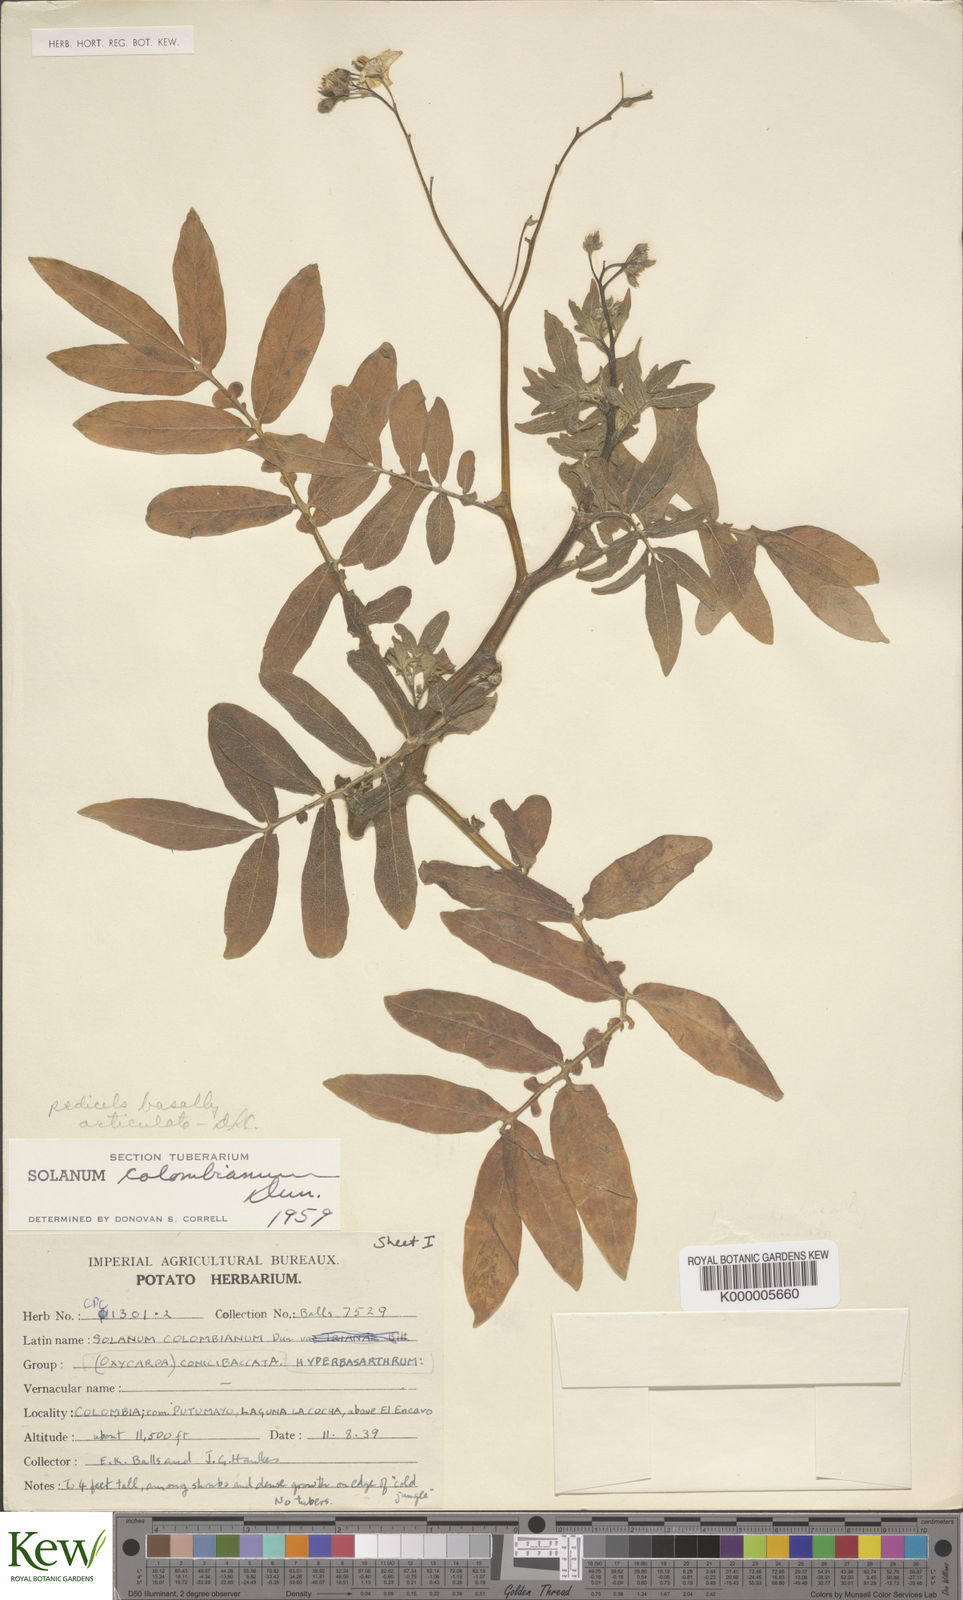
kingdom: Plantae
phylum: Tracheophyta
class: Magnoliopsida
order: Solanales
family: Solanaceae
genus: Solanum
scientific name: Solanum colombianum
